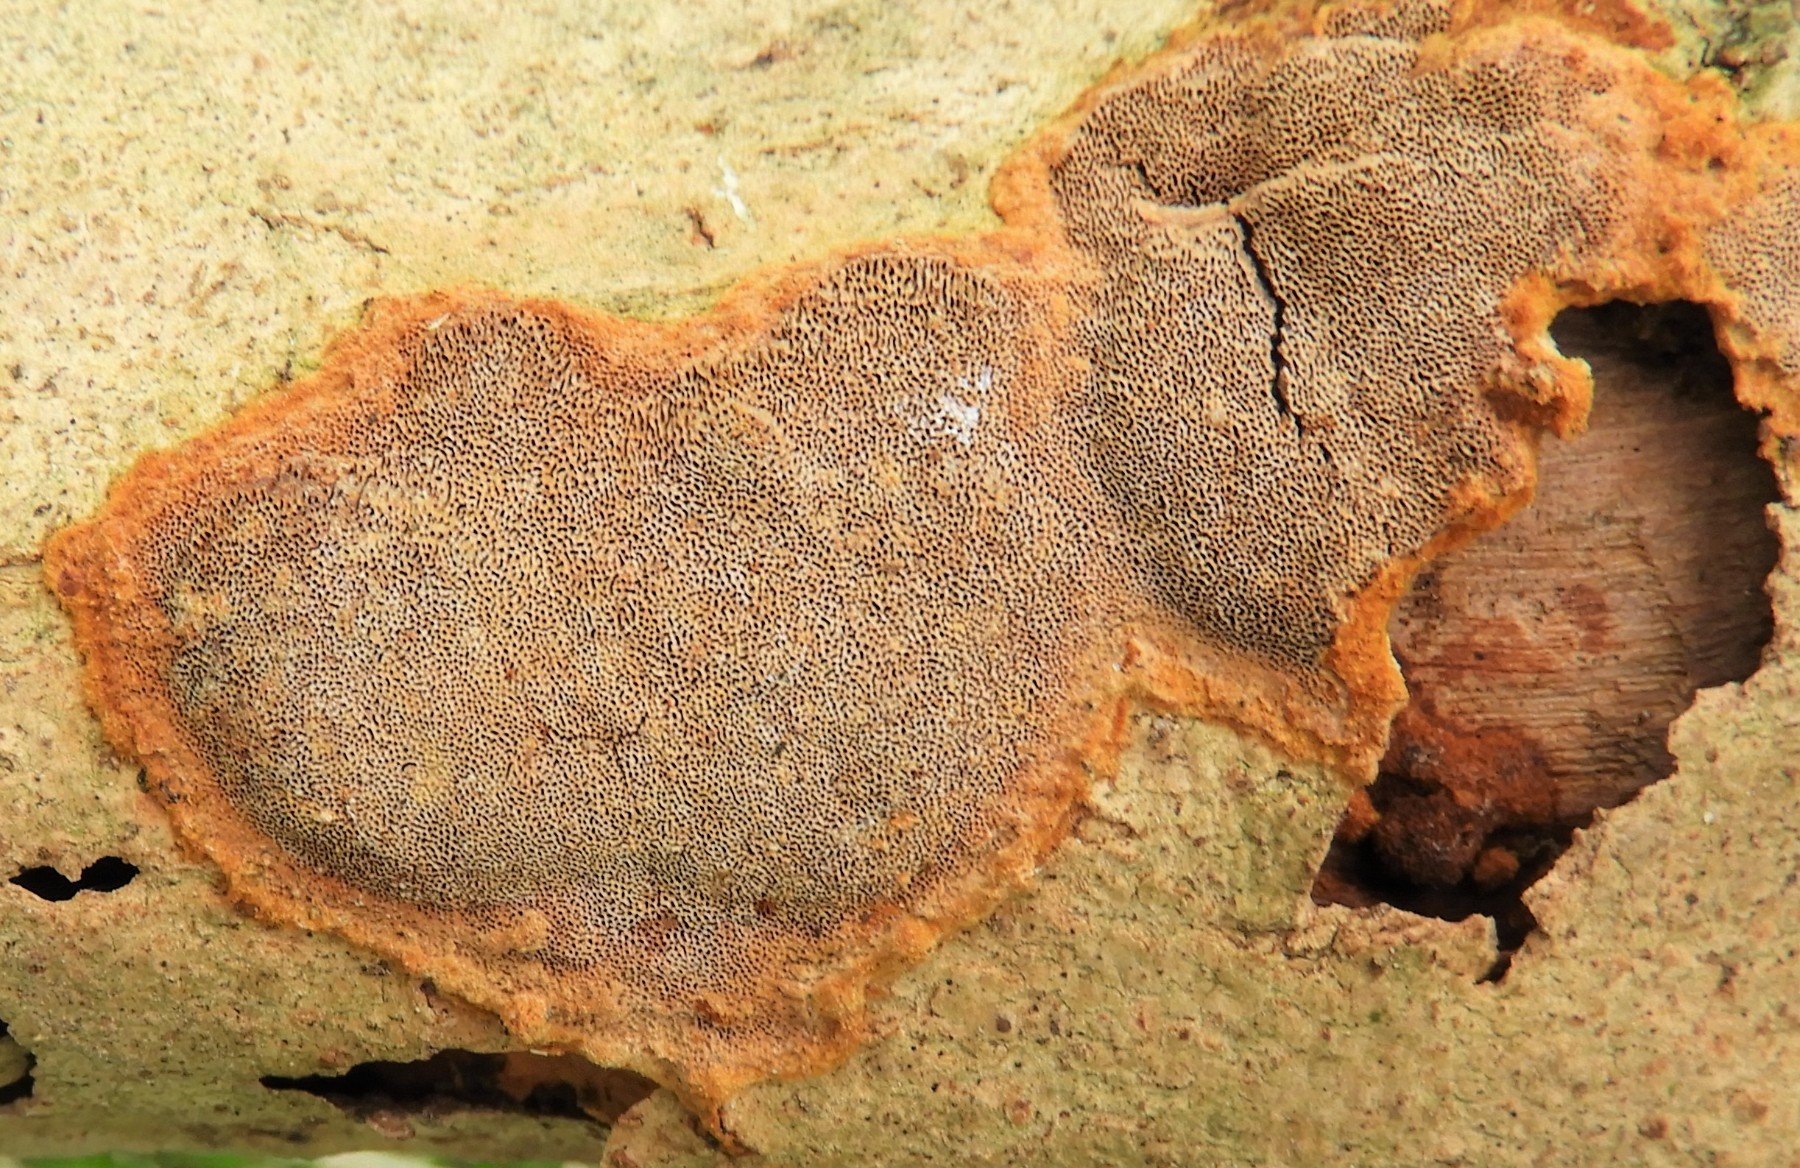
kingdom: Fungi
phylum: Basidiomycota
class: Agaricomycetes
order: Hymenochaetales
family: Hymenochaetaceae
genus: Fuscoporia
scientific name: Fuscoporia ferruginosa
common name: rustbrun ildporesvamp
